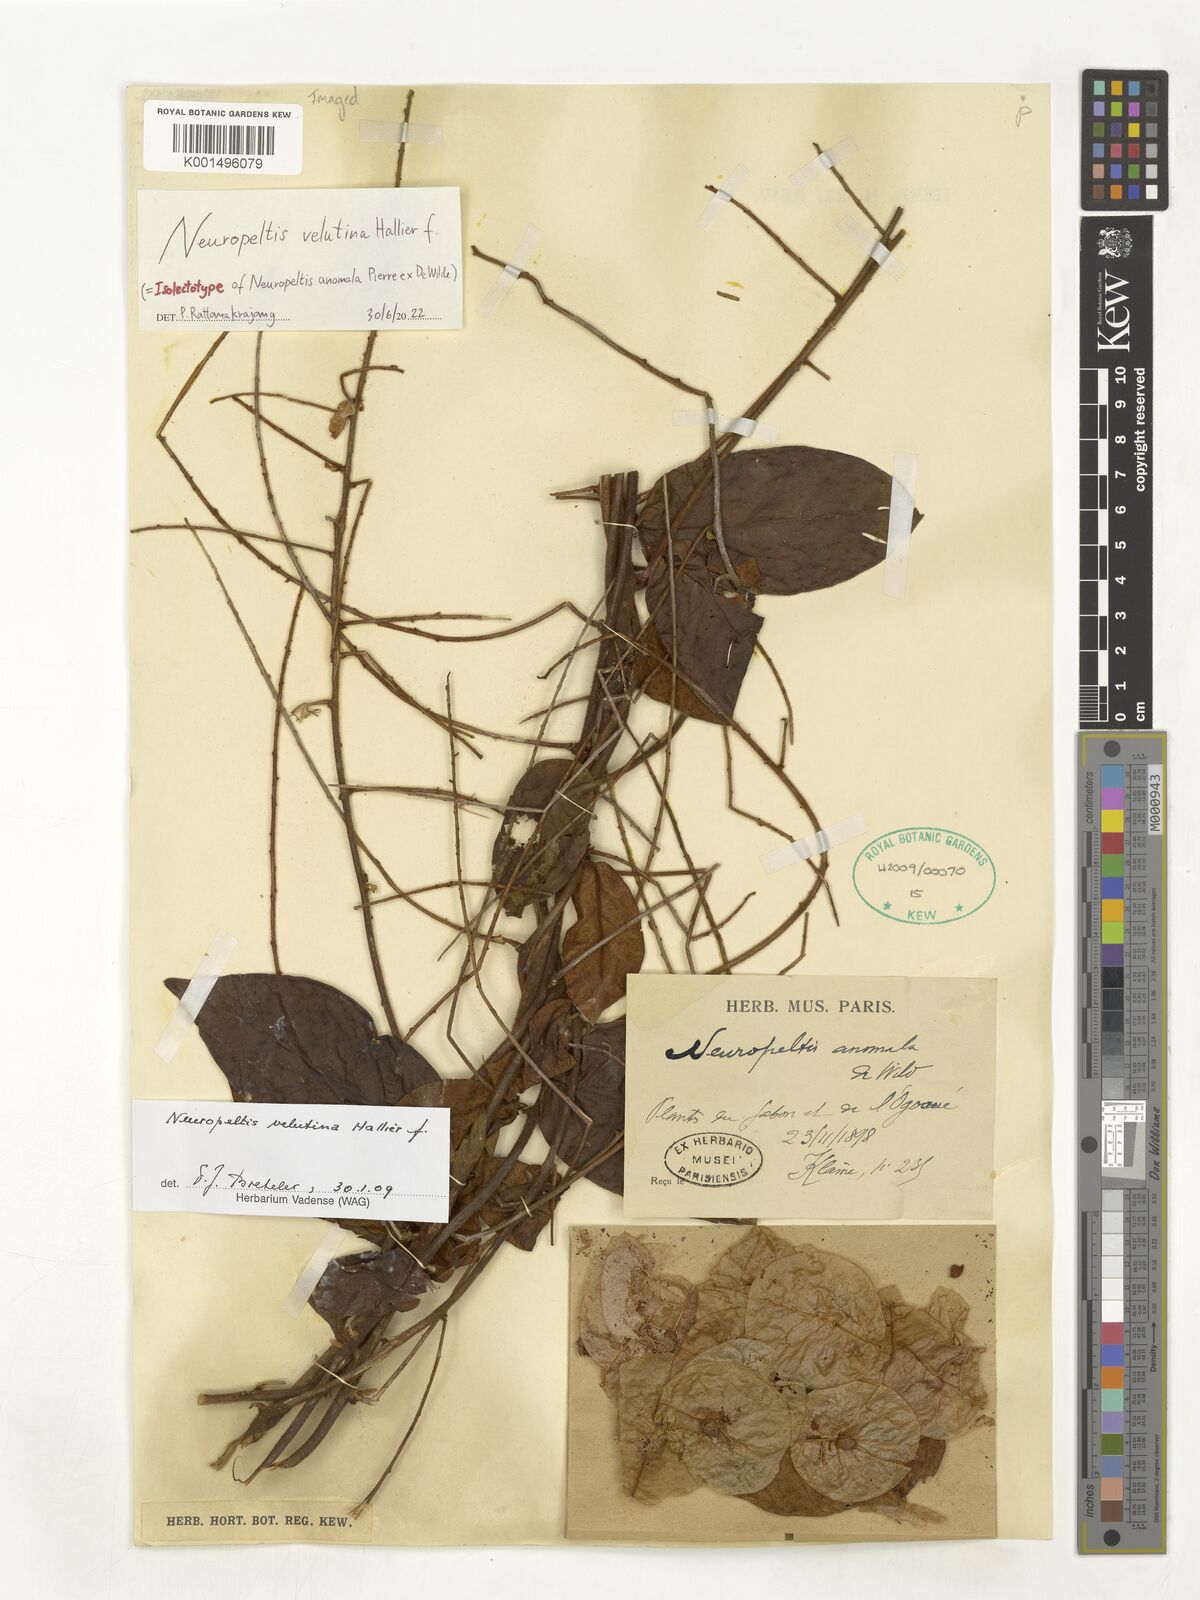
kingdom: Plantae
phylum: Tracheophyta
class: Magnoliopsida
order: Solanales
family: Convolvulaceae
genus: Neuropeltis
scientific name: Neuropeltis velutina
